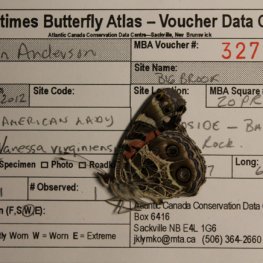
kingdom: Animalia
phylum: Arthropoda
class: Insecta
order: Lepidoptera
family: Nymphalidae
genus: Vanessa
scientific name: Vanessa virginiensis
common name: American Lady
